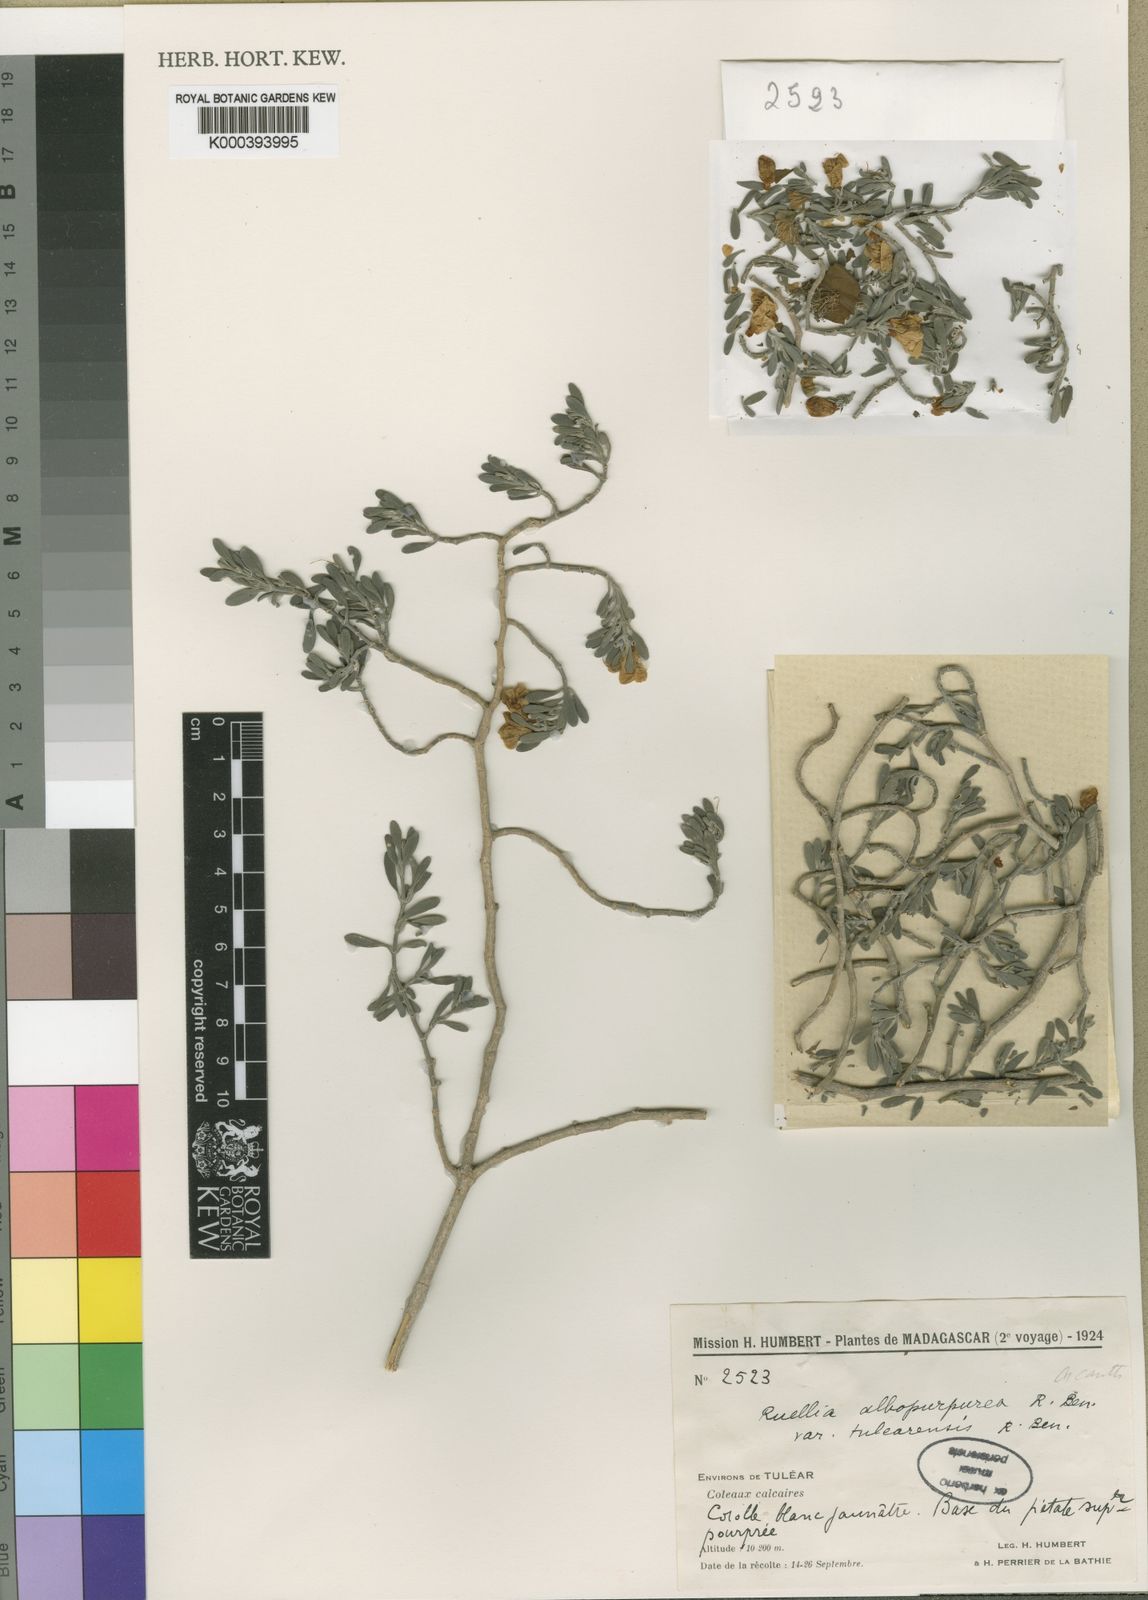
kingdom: Plantae
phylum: Tracheophyta
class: Magnoliopsida
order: Lamiales
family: Acanthaceae
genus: Ruellia
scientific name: Ruellia albopurpurea
